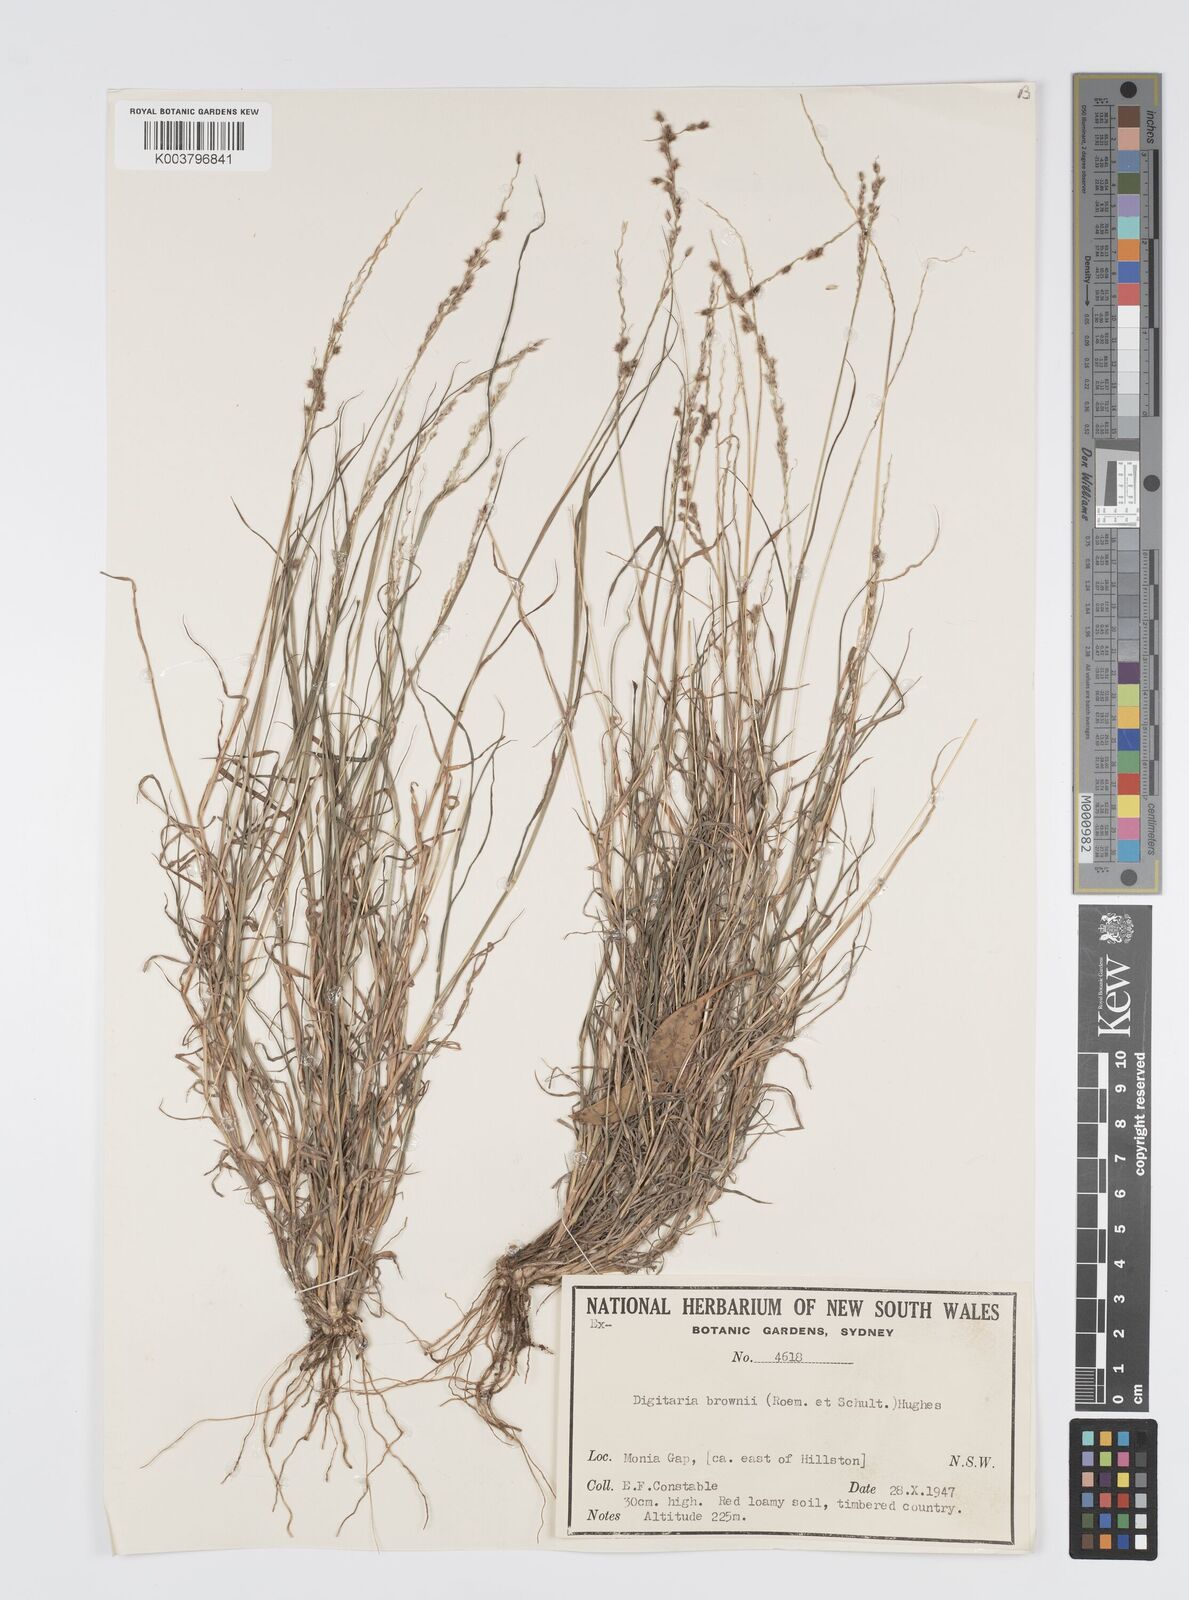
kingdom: Plantae
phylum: Tracheophyta
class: Liliopsida
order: Poales
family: Poaceae
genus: Digitaria
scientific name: Digitaria brownii
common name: Cotton grass
